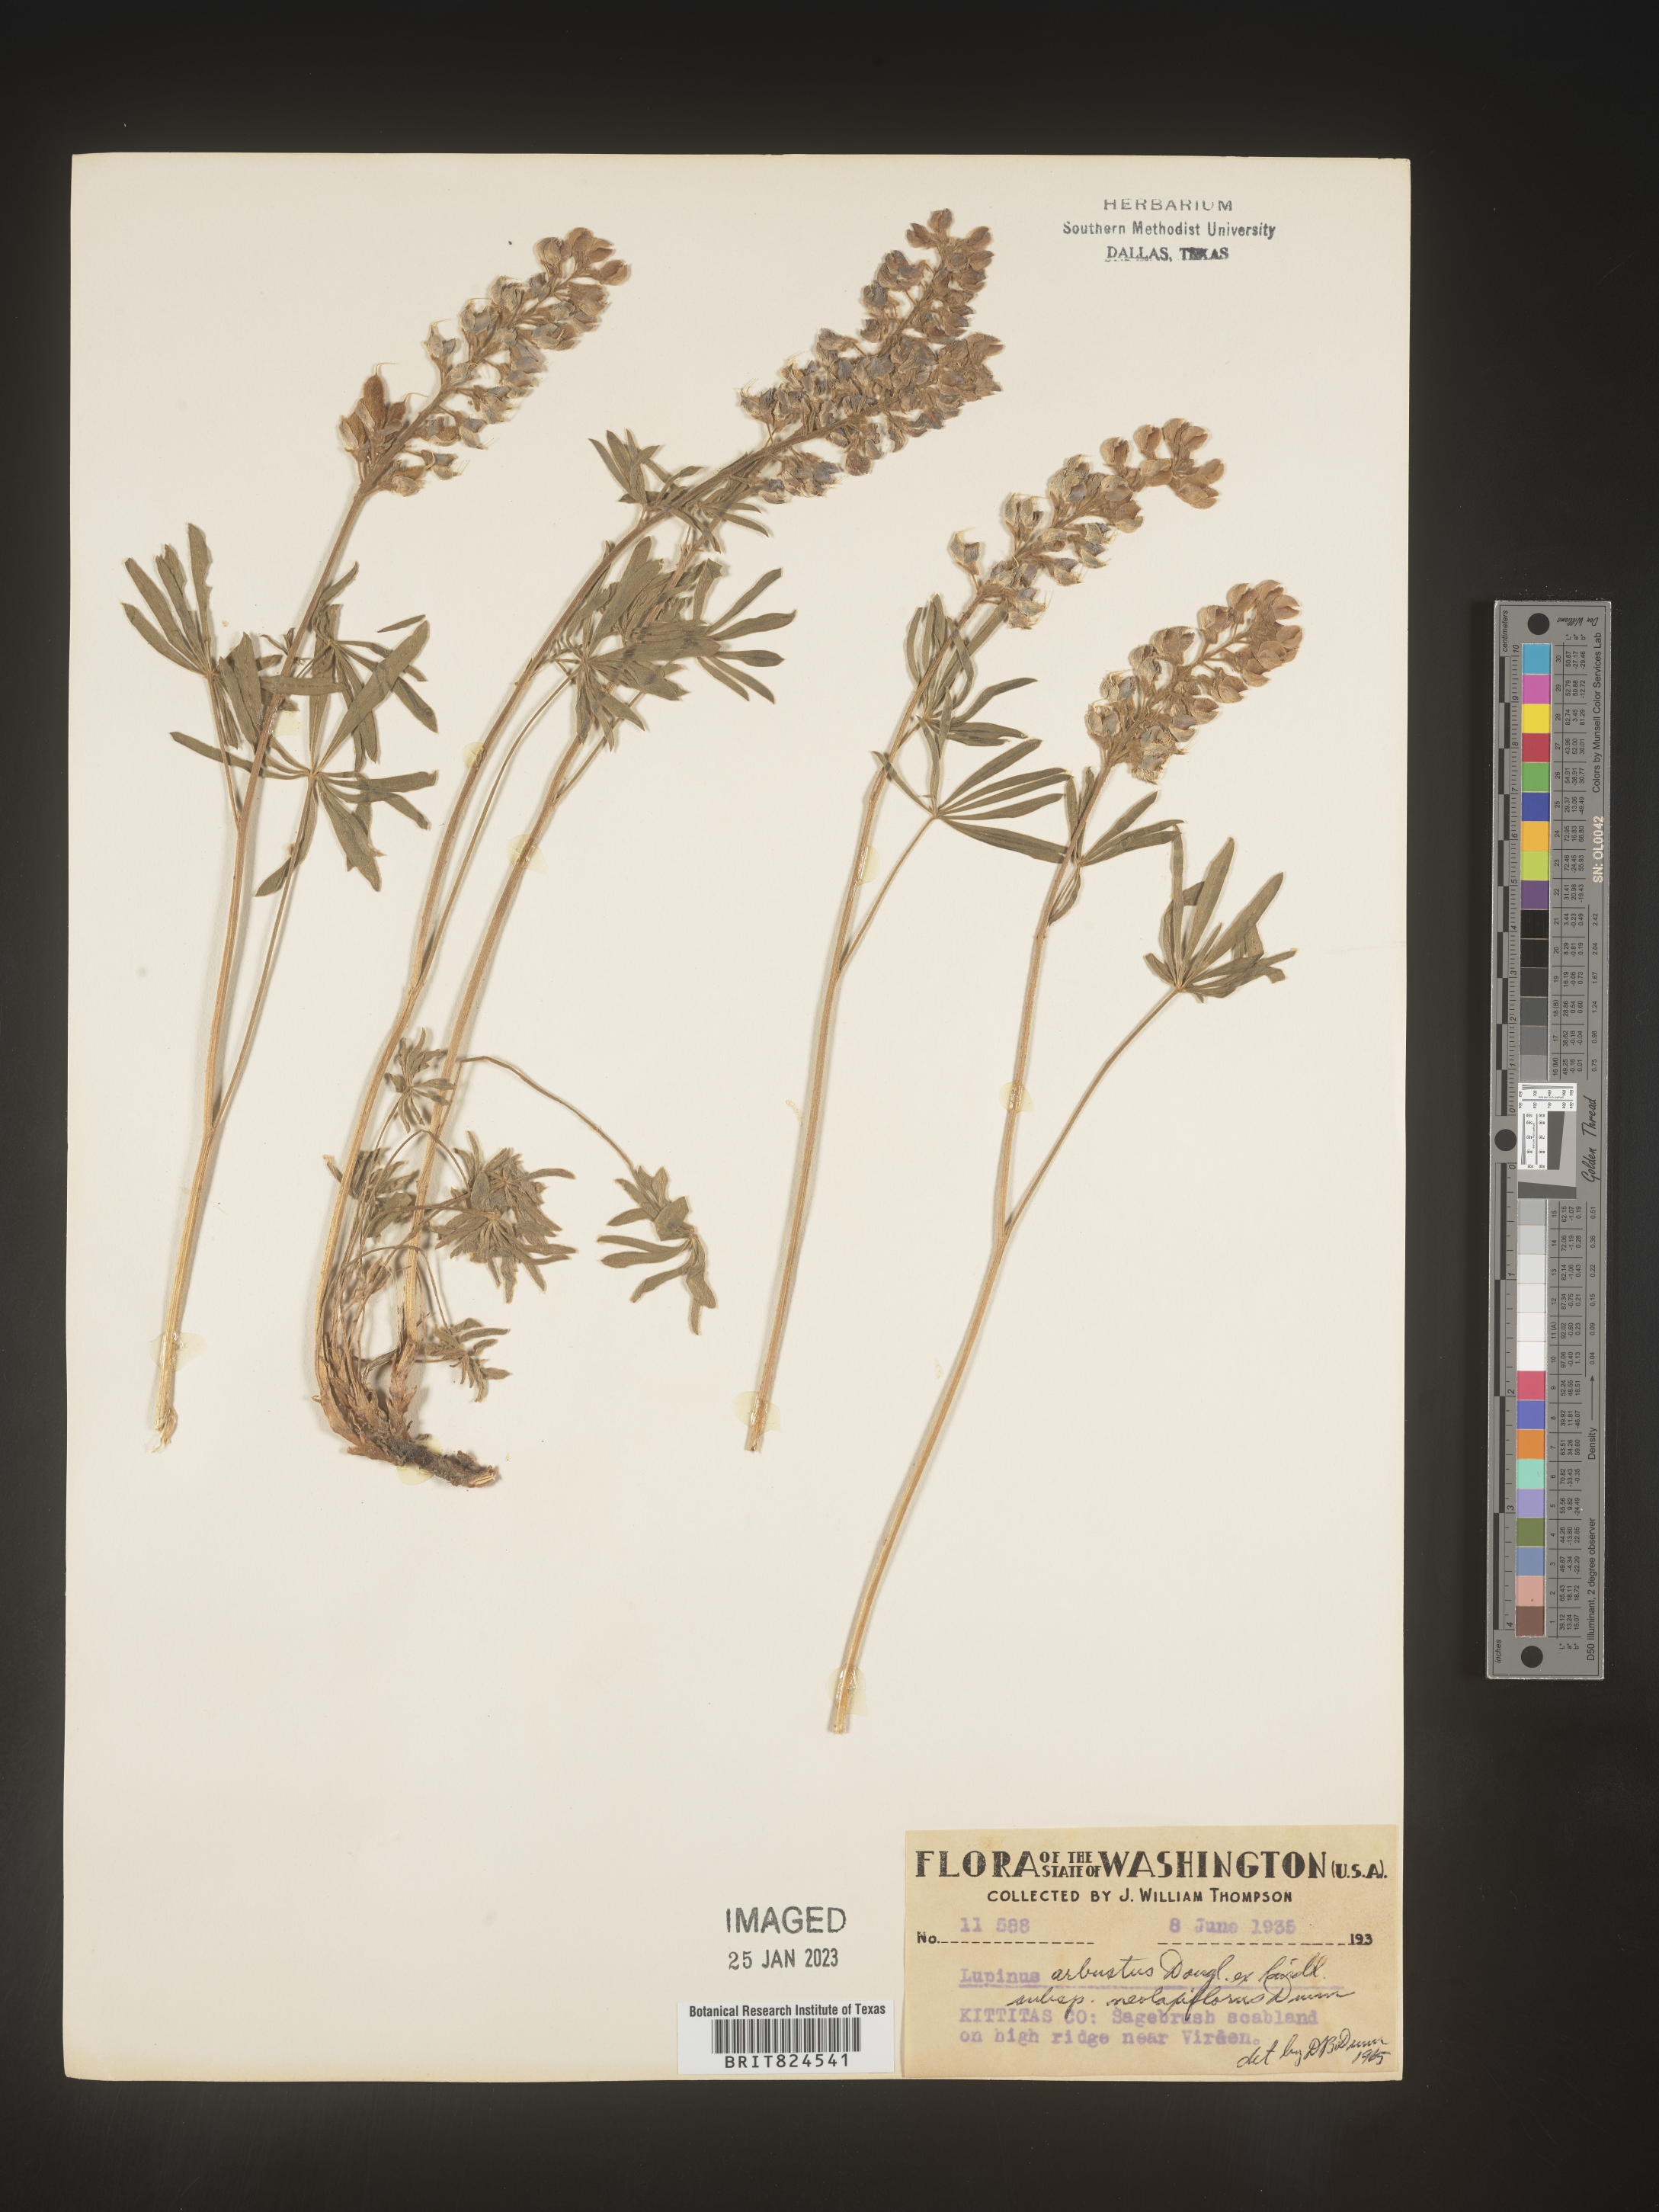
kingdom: Plantae
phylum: Tracheophyta
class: Magnoliopsida
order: Fabales
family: Fabaceae
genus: Lupinus
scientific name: Lupinus arbustus
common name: Montana lupine
